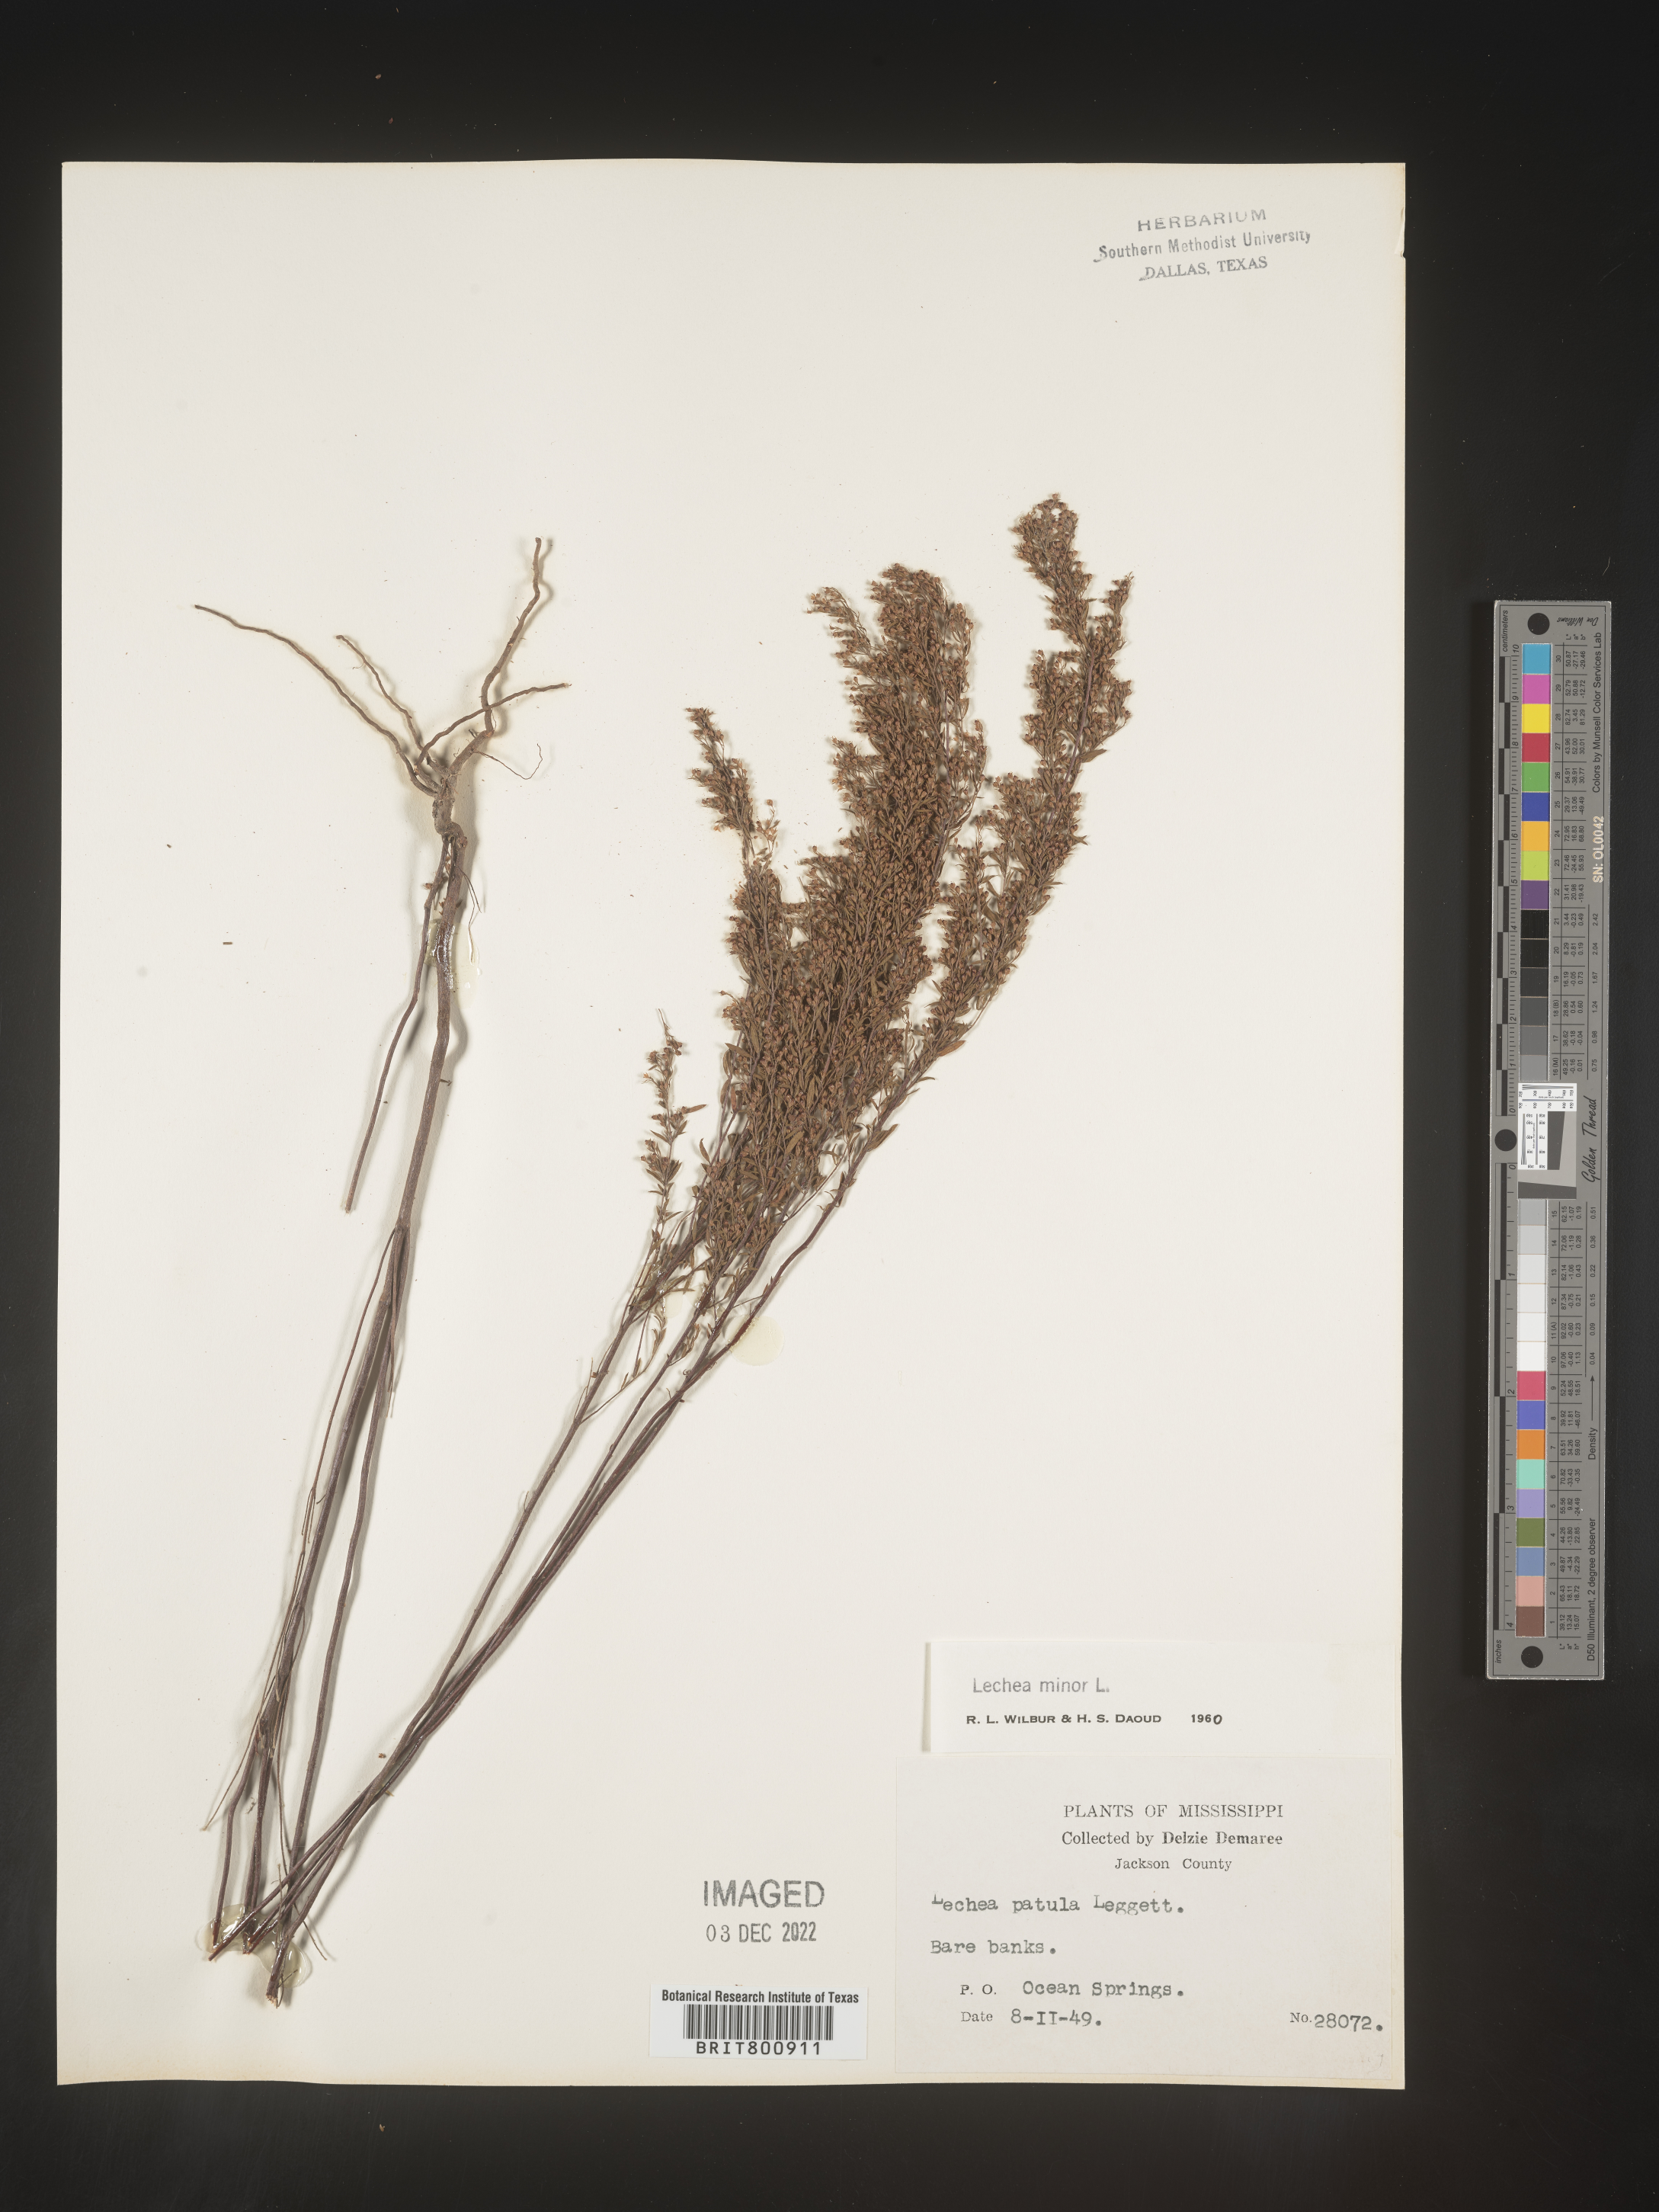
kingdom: Plantae
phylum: Tracheophyta
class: Magnoliopsida
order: Malvales
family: Cistaceae
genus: Lechea
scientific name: Lechea minor
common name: Thyme-leaf pinweed
